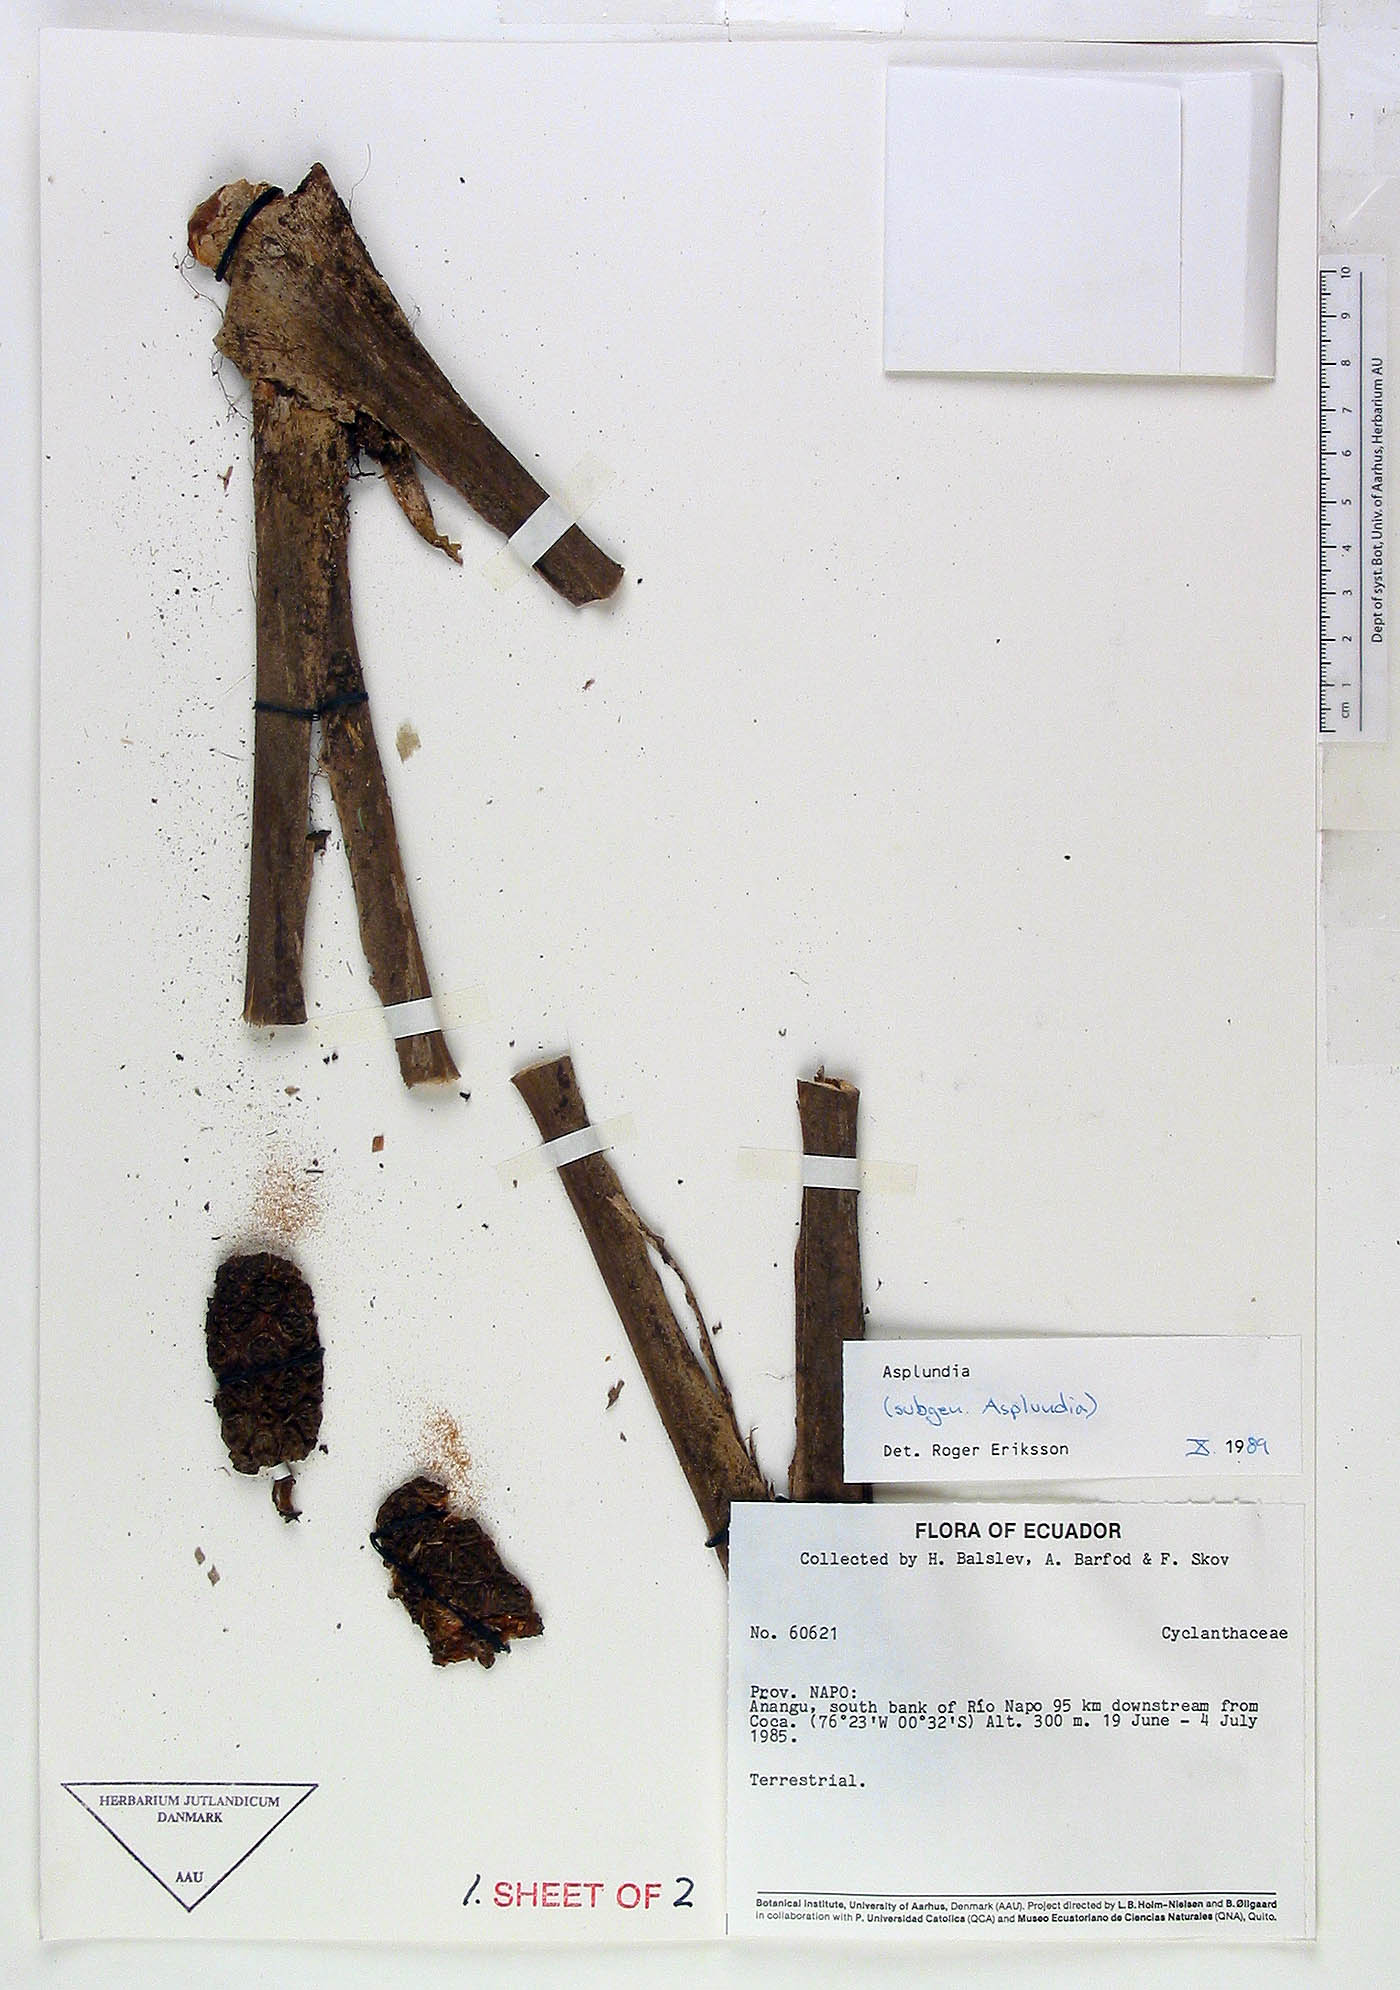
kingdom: Plantae
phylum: Tracheophyta
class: Liliopsida
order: Pandanales
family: Cyclanthaceae
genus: Asplundia
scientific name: Asplundia
